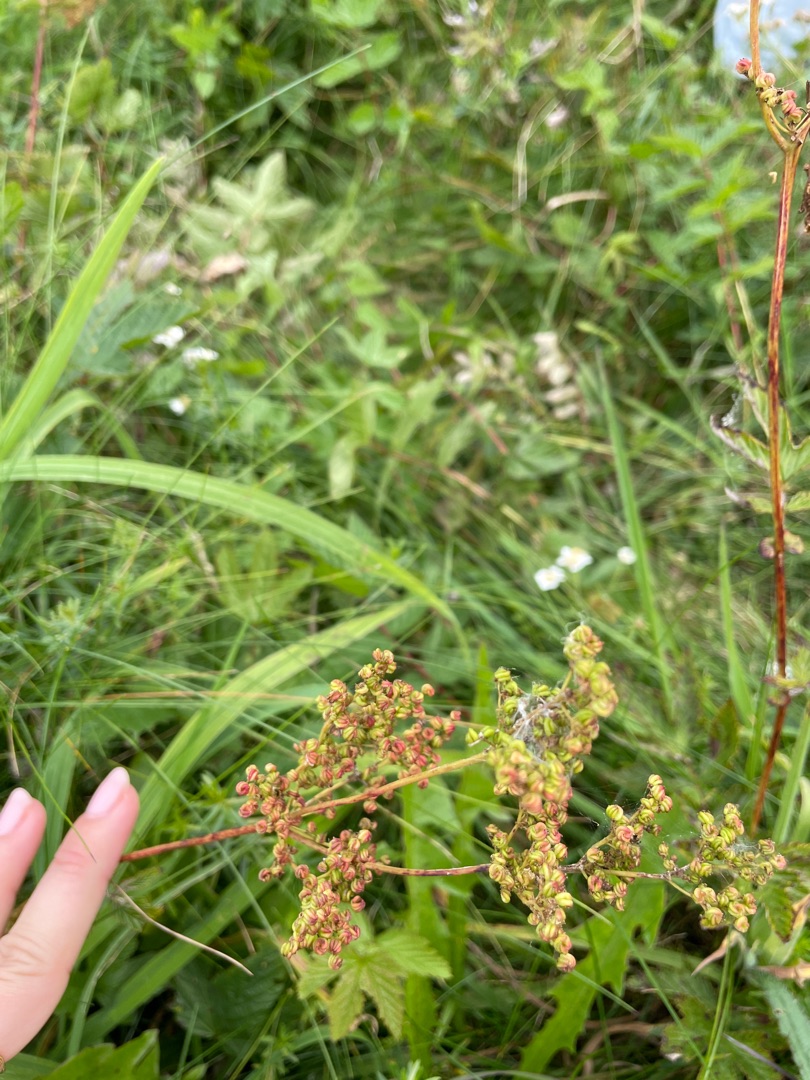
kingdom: Plantae
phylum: Tracheophyta
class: Magnoliopsida
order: Rosales
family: Rosaceae
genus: Filipendula
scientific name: Filipendula ulmaria
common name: Almindelig mjødurt
